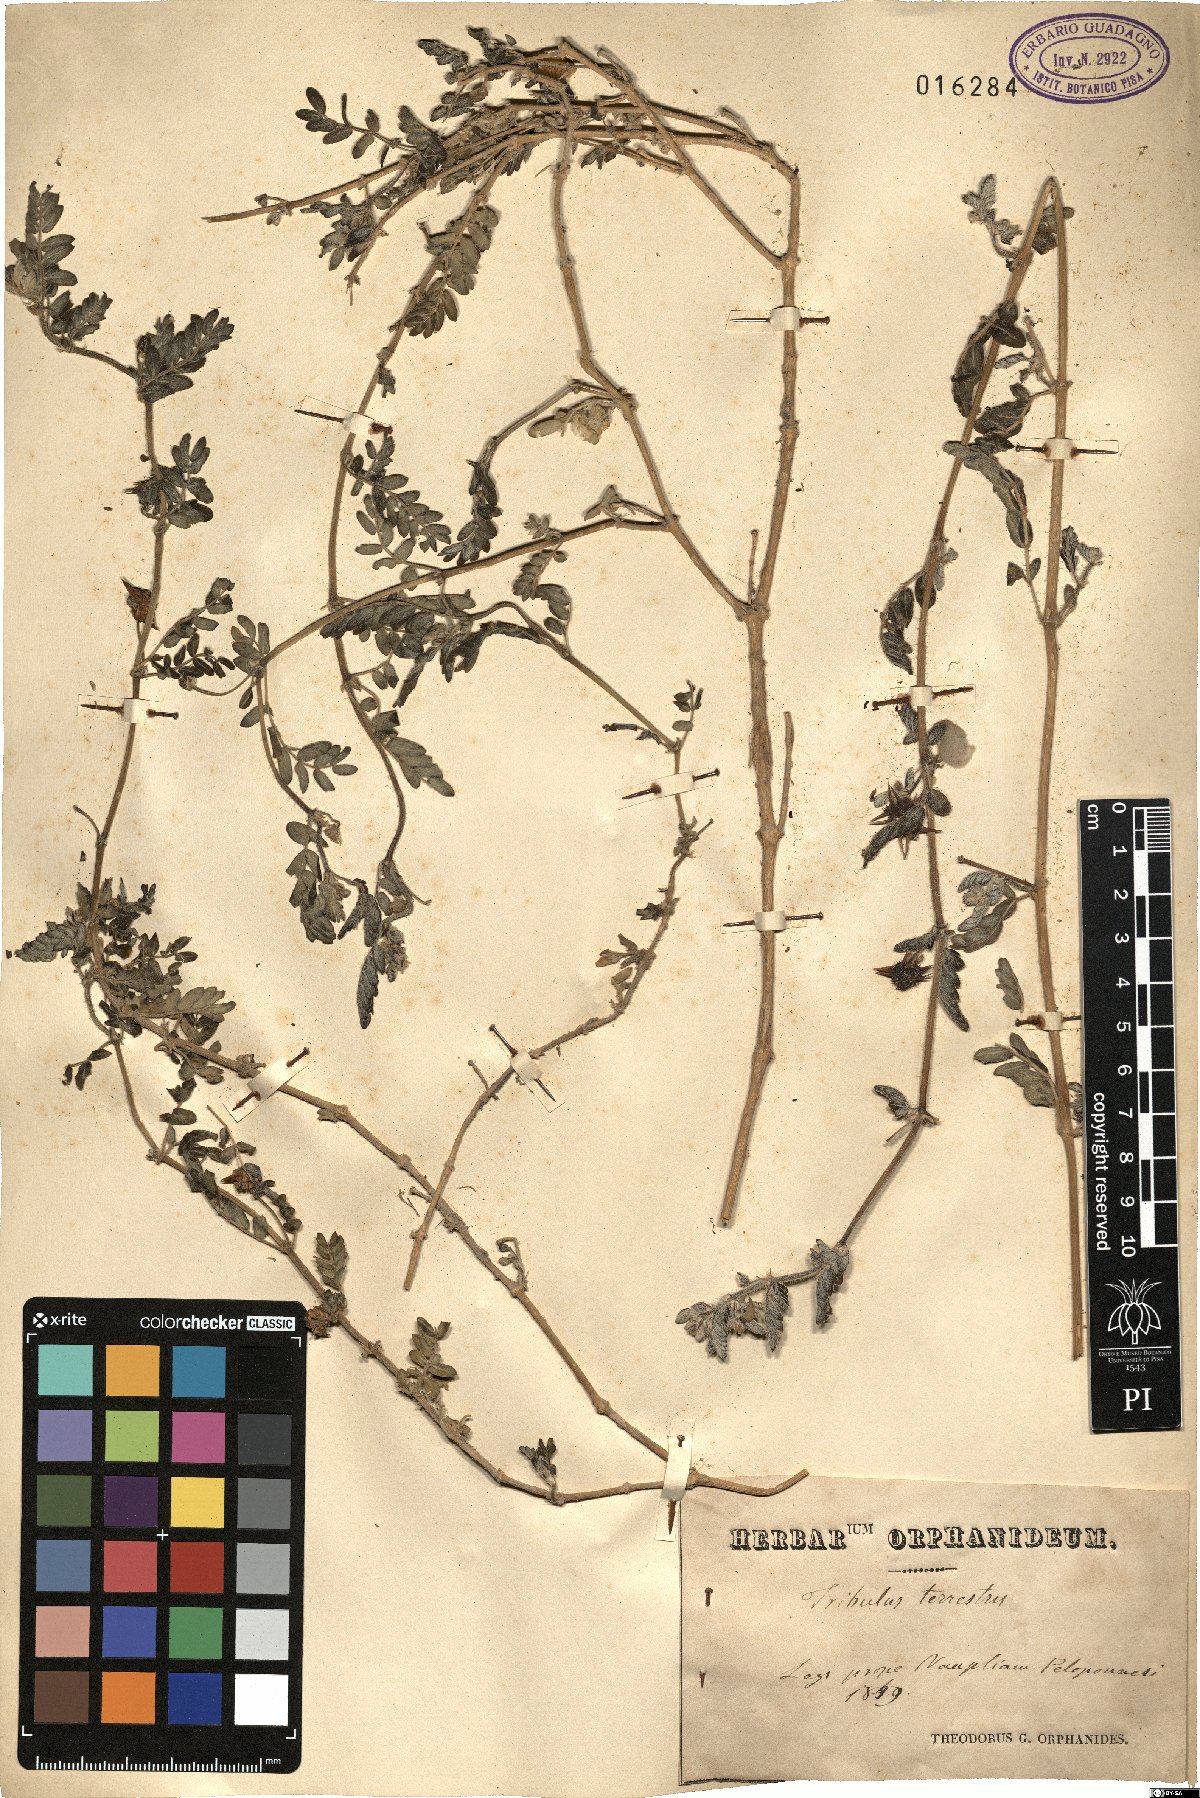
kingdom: Plantae
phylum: Tracheophyta
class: Magnoliopsida
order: Zygophyllales
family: Zygophyllaceae
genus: Tribulus
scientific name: Tribulus terrestris
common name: Puncturevine
